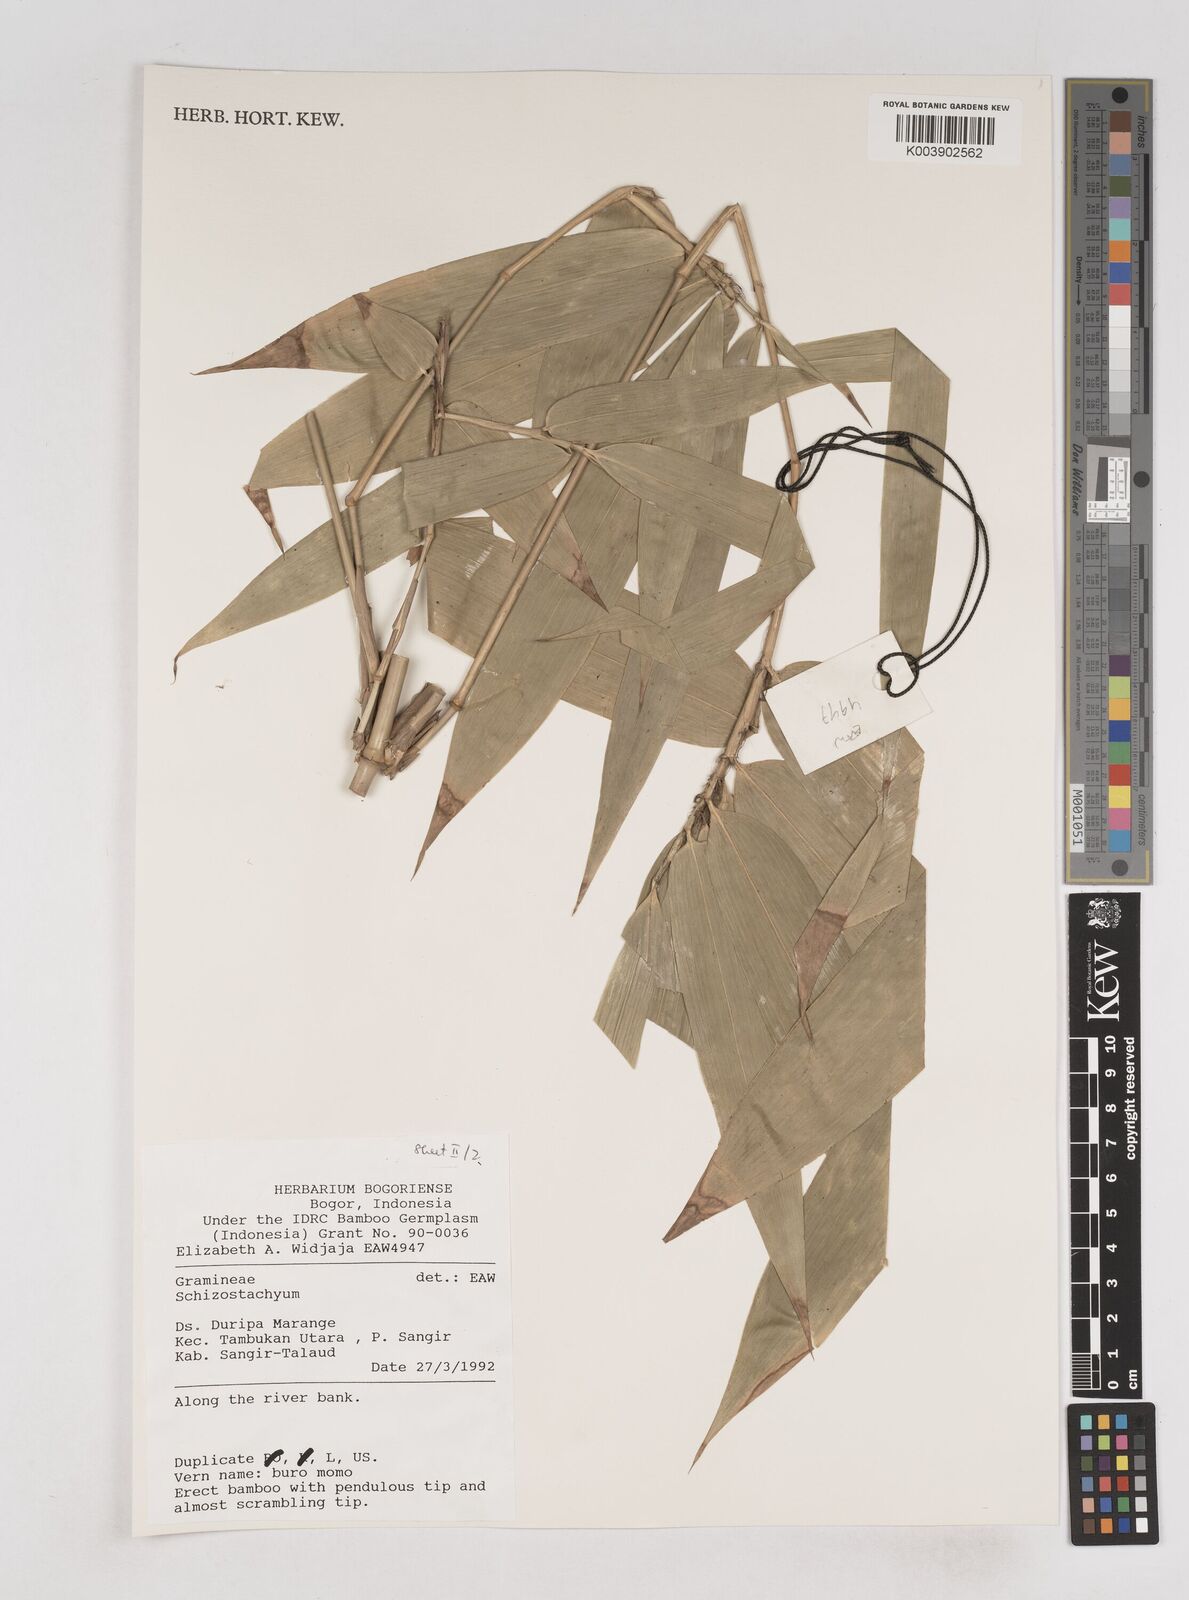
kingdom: Plantae
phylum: Tracheophyta
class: Liliopsida
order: Poales
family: Poaceae
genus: Schizostachyum
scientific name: Schizostachyum
